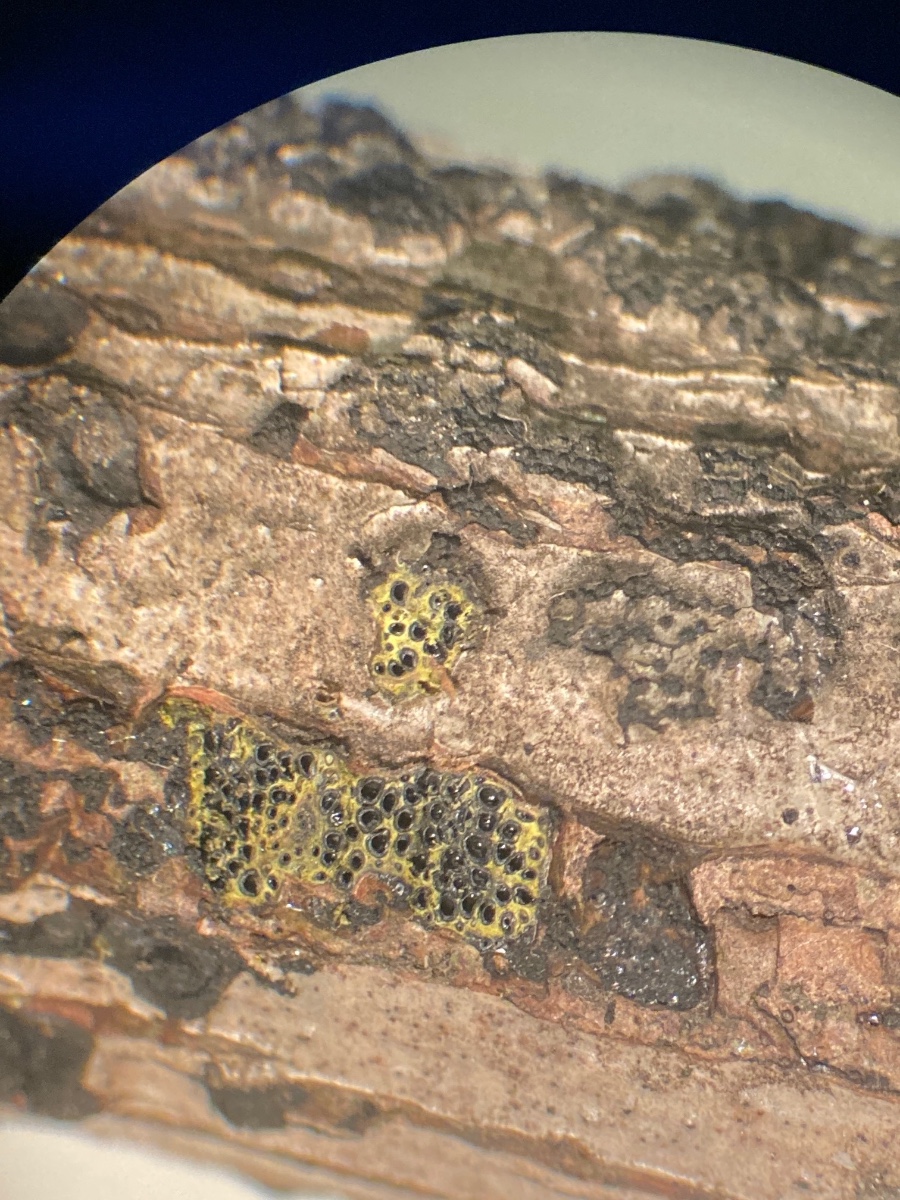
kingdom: Fungi
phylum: Ascomycota
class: Sordariomycetes
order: Xylariales
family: Diatrypaceae
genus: Eutypa
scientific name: Eutypa flavovirens
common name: grønkødet kulskorpe
